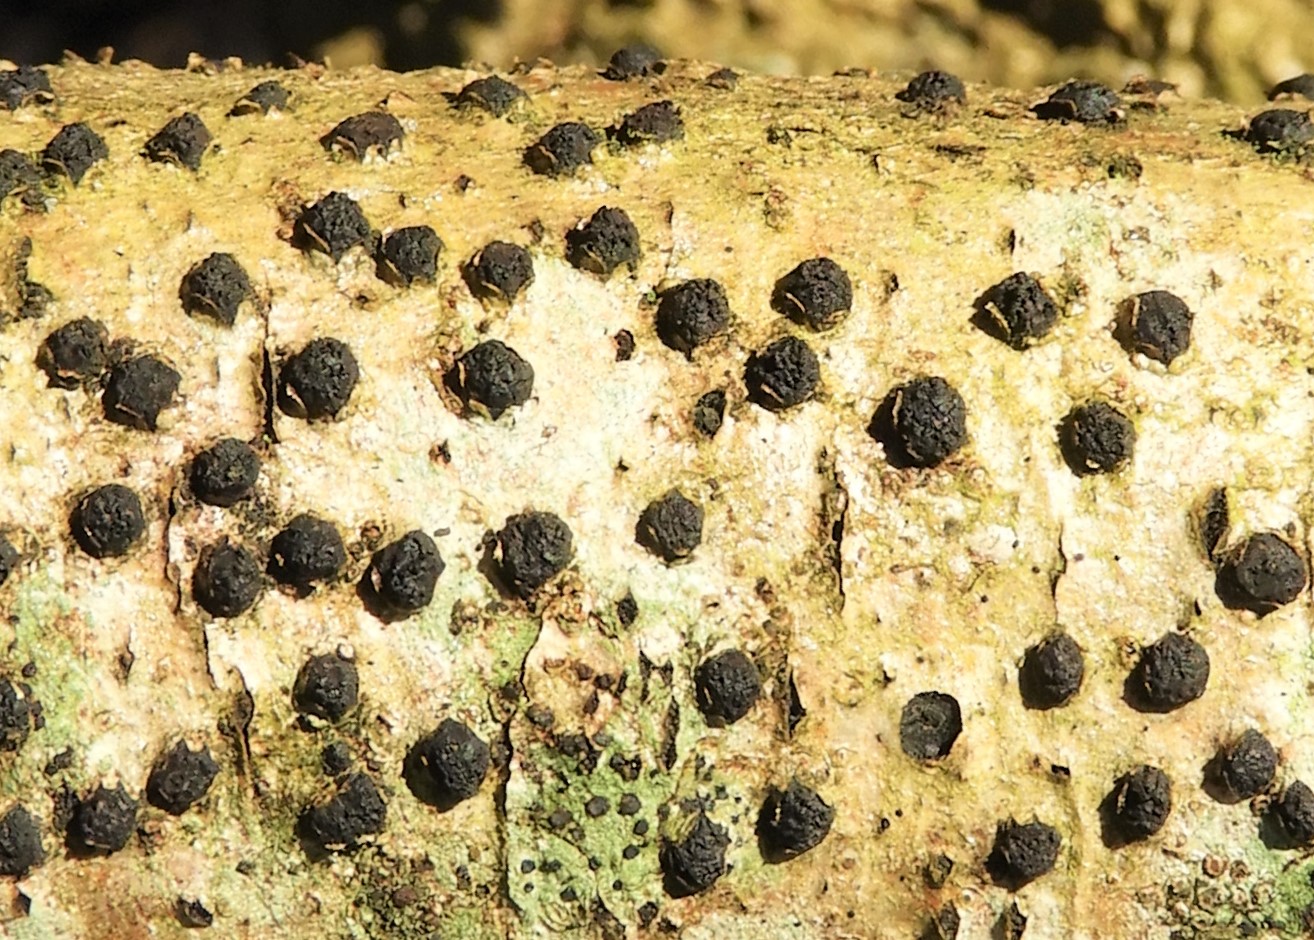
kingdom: Fungi
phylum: Ascomycota
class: Sordariomycetes
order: Xylariales
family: Diatrypaceae
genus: Diatrypella
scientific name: Diatrypella quercina
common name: ege-kulskorpe
